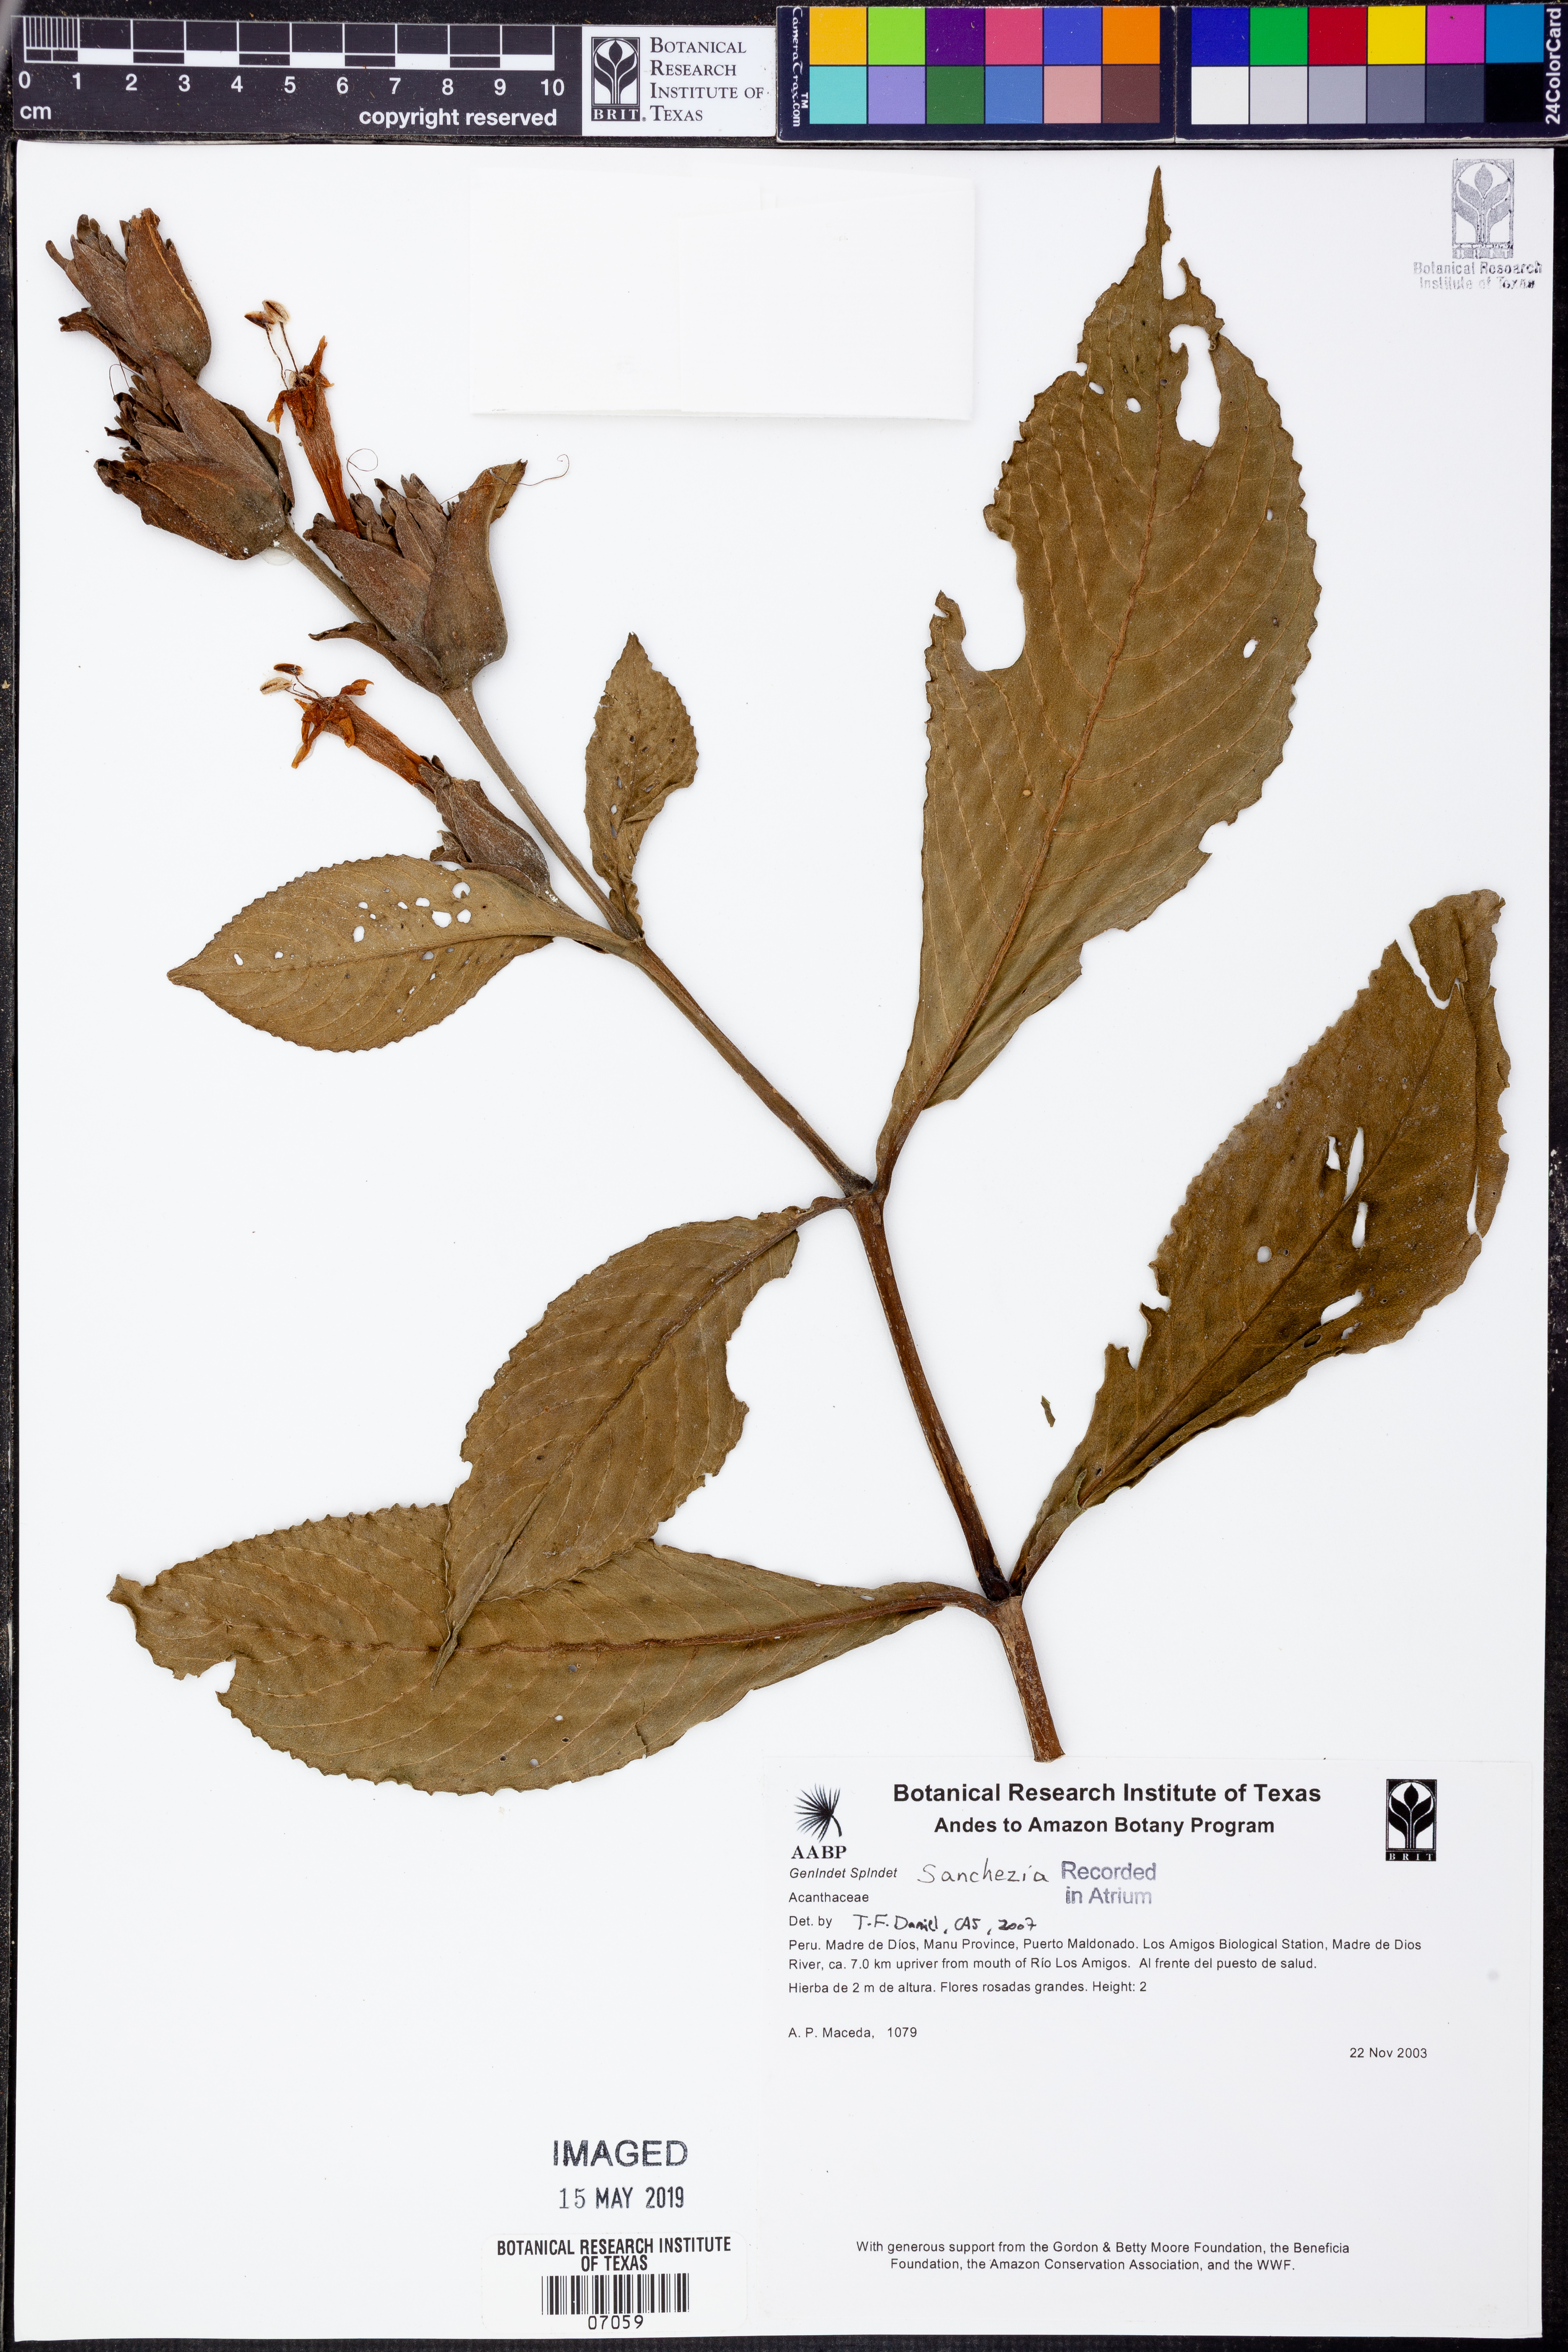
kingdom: Plantae
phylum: Tracheophyta
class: Magnoliopsida
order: Lamiales
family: Acanthaceae
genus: Sanchezia
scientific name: Sanchezia
